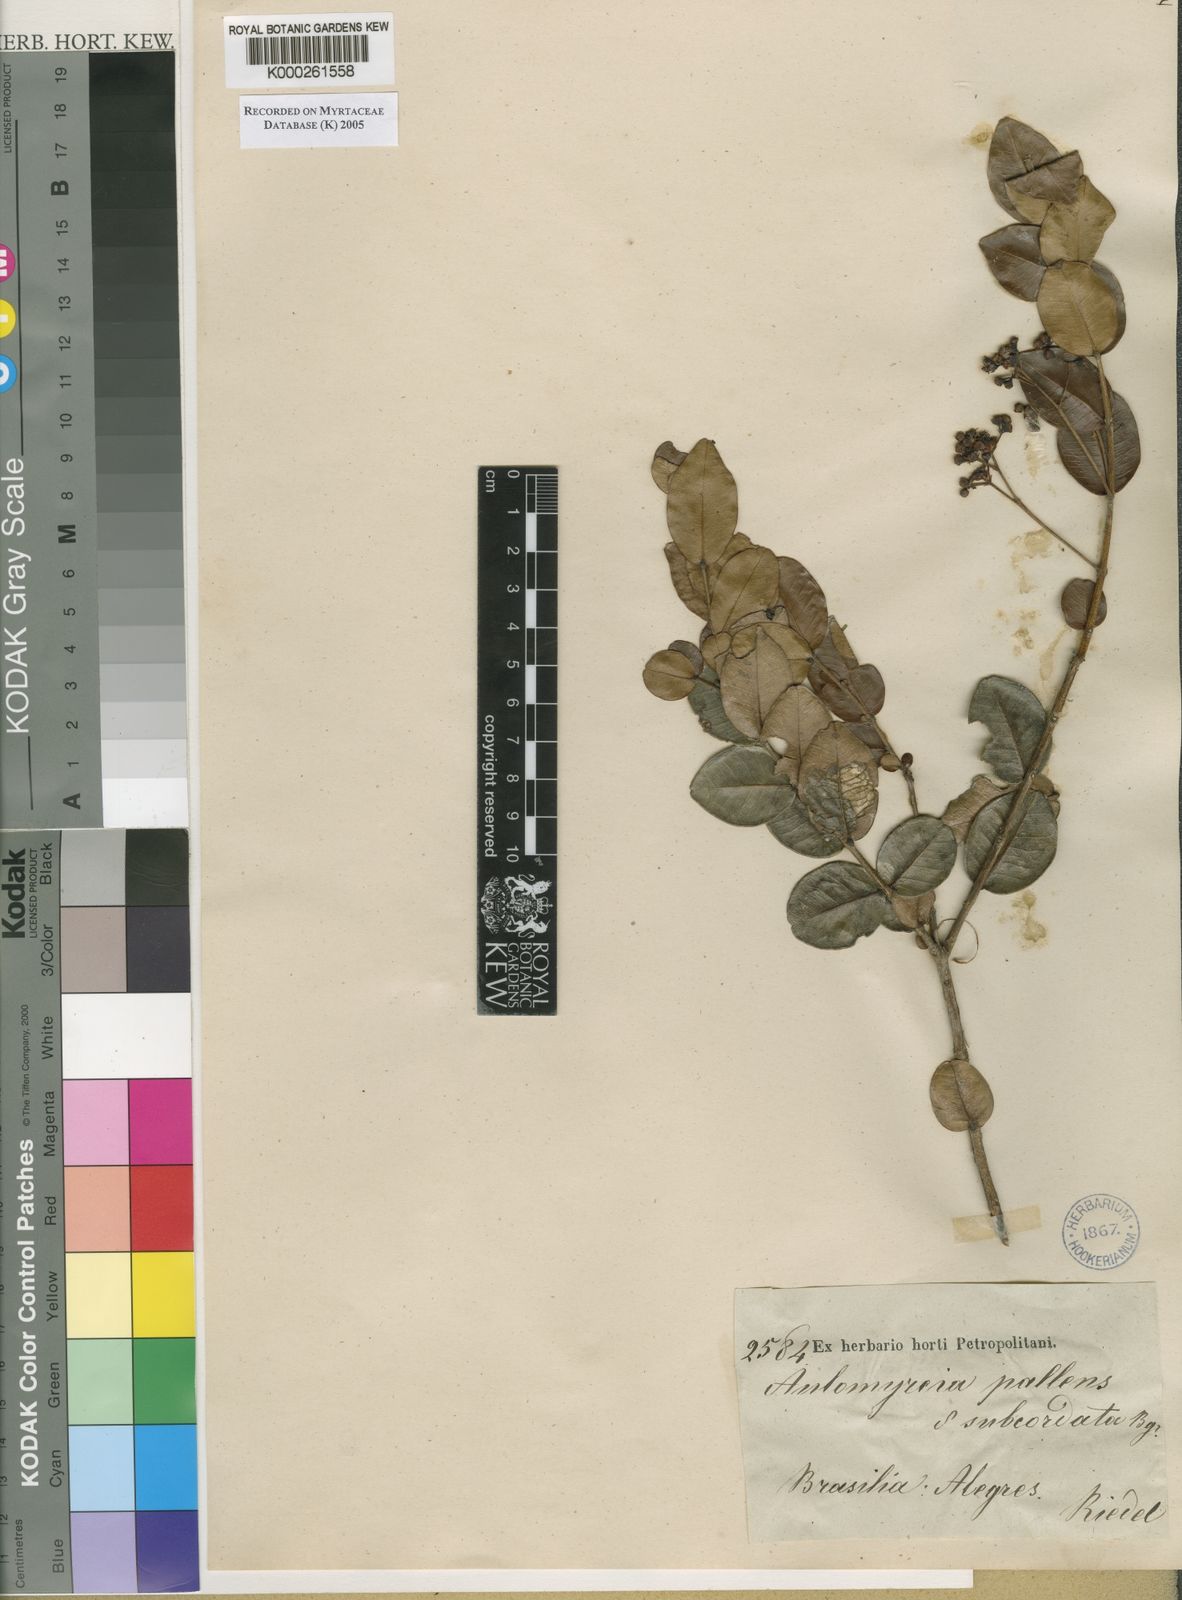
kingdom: Plantae
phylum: Tracheophyta
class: Magnoliopsida
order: Myrtales
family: Myrtaceae
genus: Myrcia
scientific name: Myrcia guianensis
